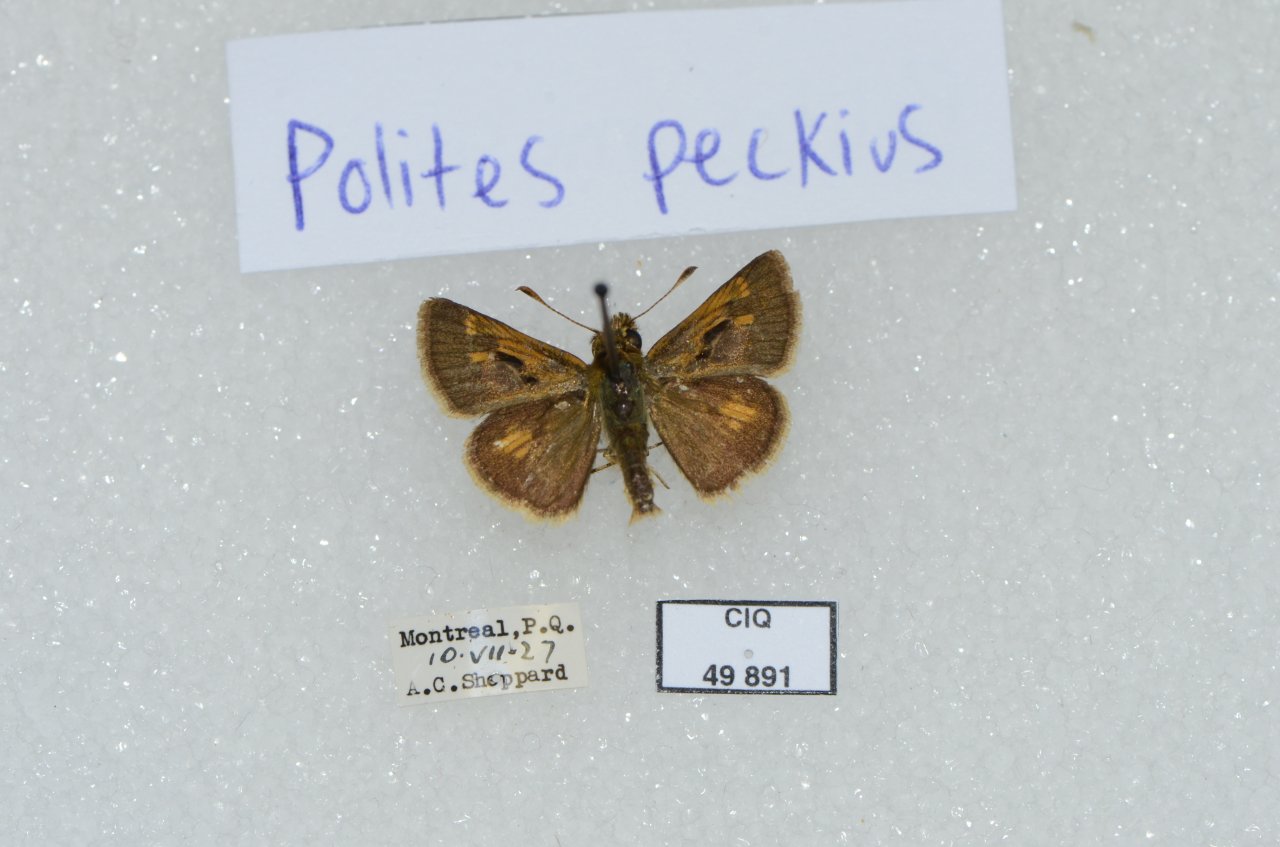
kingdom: Animalia
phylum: Arthropoda
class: Insecta
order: Lepidoptera
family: Hesperiidae
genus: Polites
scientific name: Polites coras
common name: Peck's Skipper
